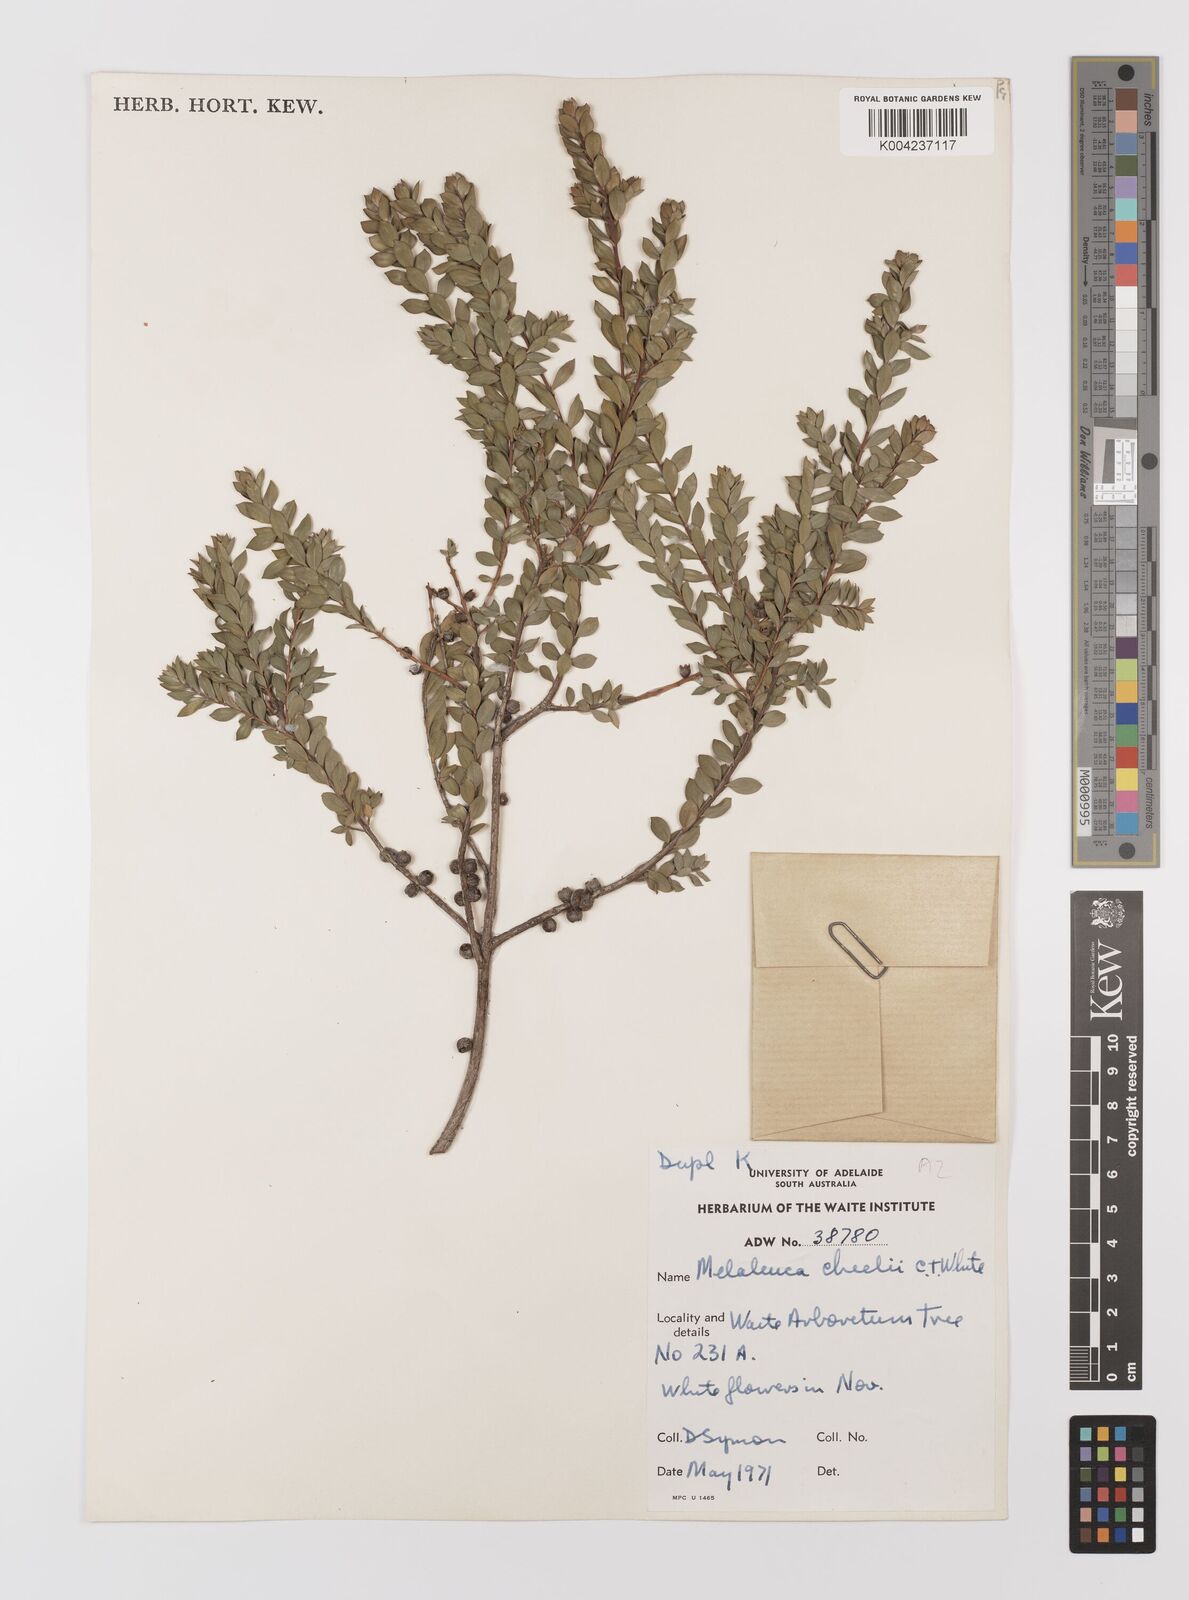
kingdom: Plantae
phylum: Tracheophyta
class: Magnoliopsida
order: Myrtales
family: Myrtaceae
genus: Melaleuca
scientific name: Melaleuca cheelii
